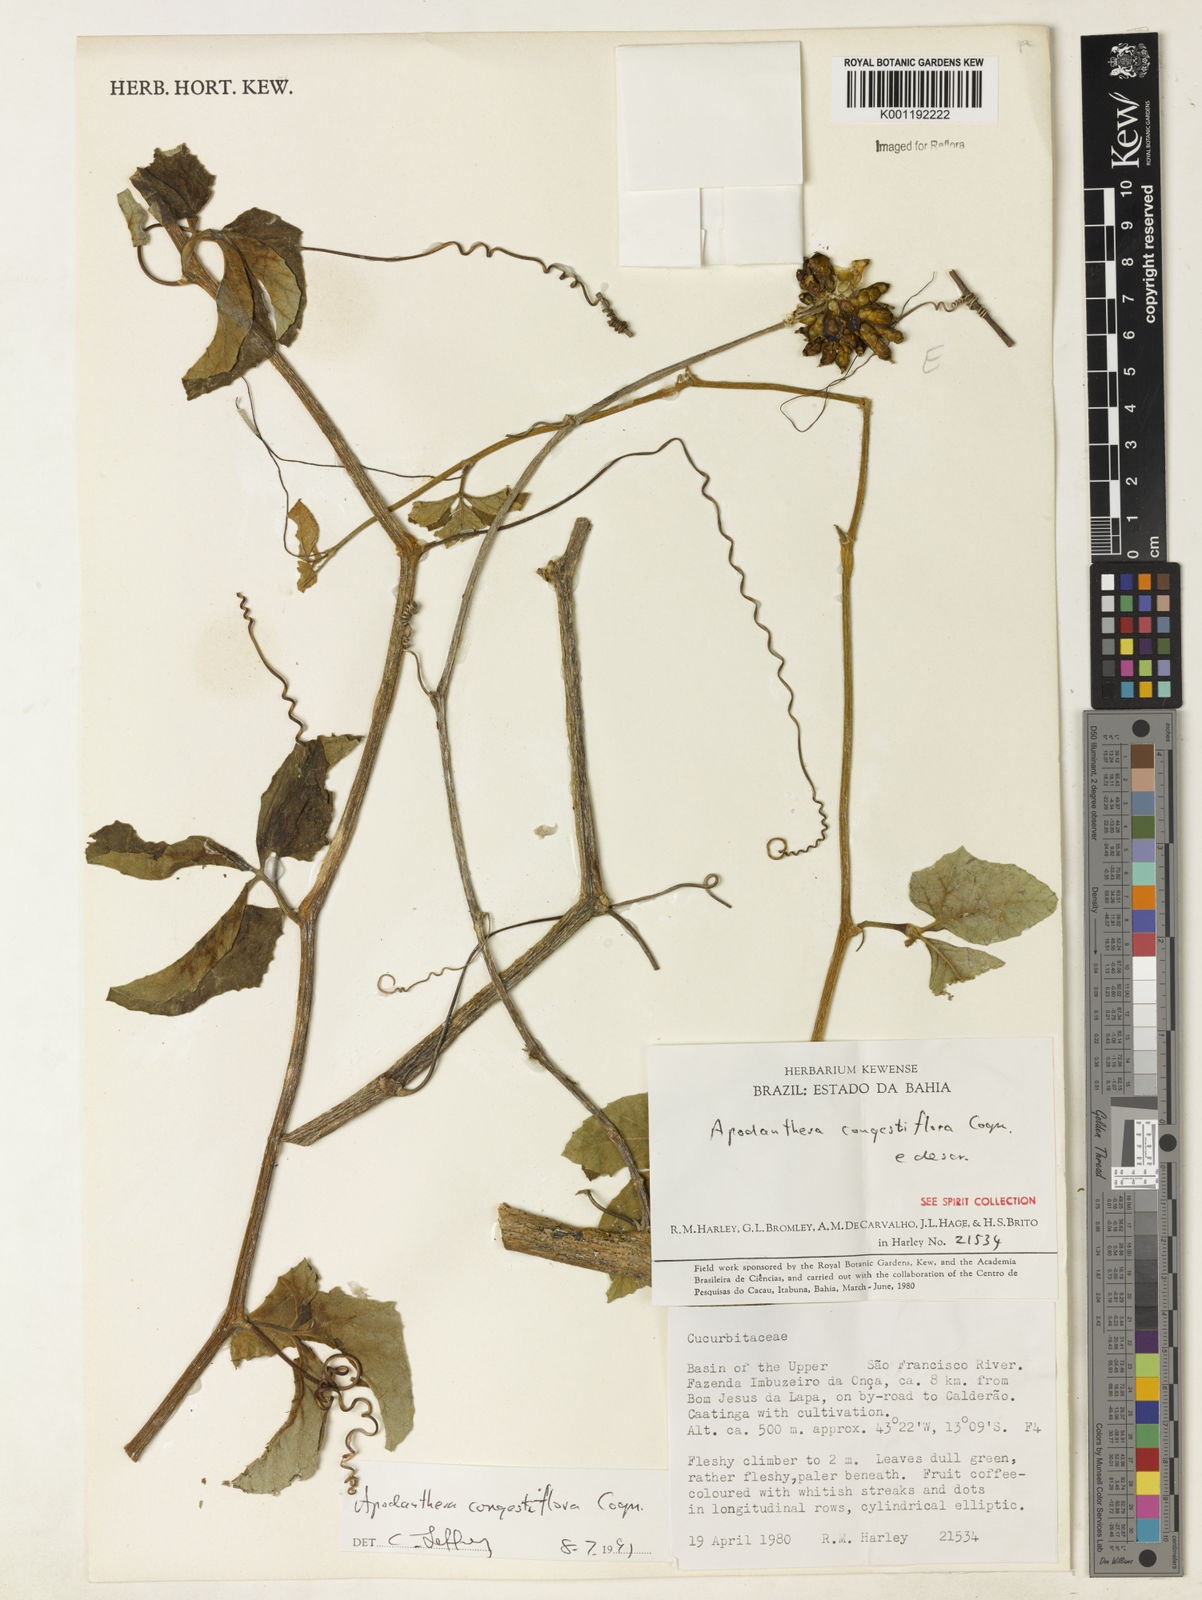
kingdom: Plantae
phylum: Tracheophyta
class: Magnoliopsida
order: Cucurbitales
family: Cucurbitaceae
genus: Apodanthera
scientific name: Apodanthera congestiflora
